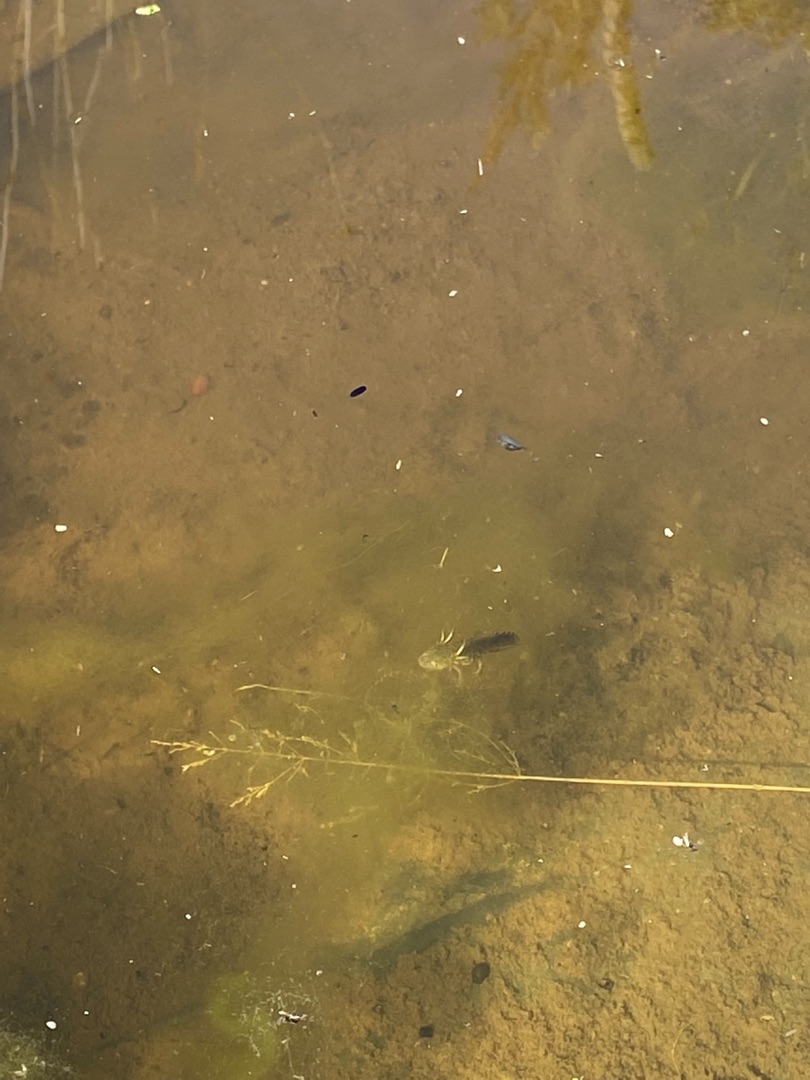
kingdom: Animalia
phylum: Chordata
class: Amphibia
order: Caudata
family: Salamandridae
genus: Triturus
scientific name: Triturus cristatus
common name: Stor vandsalamander
